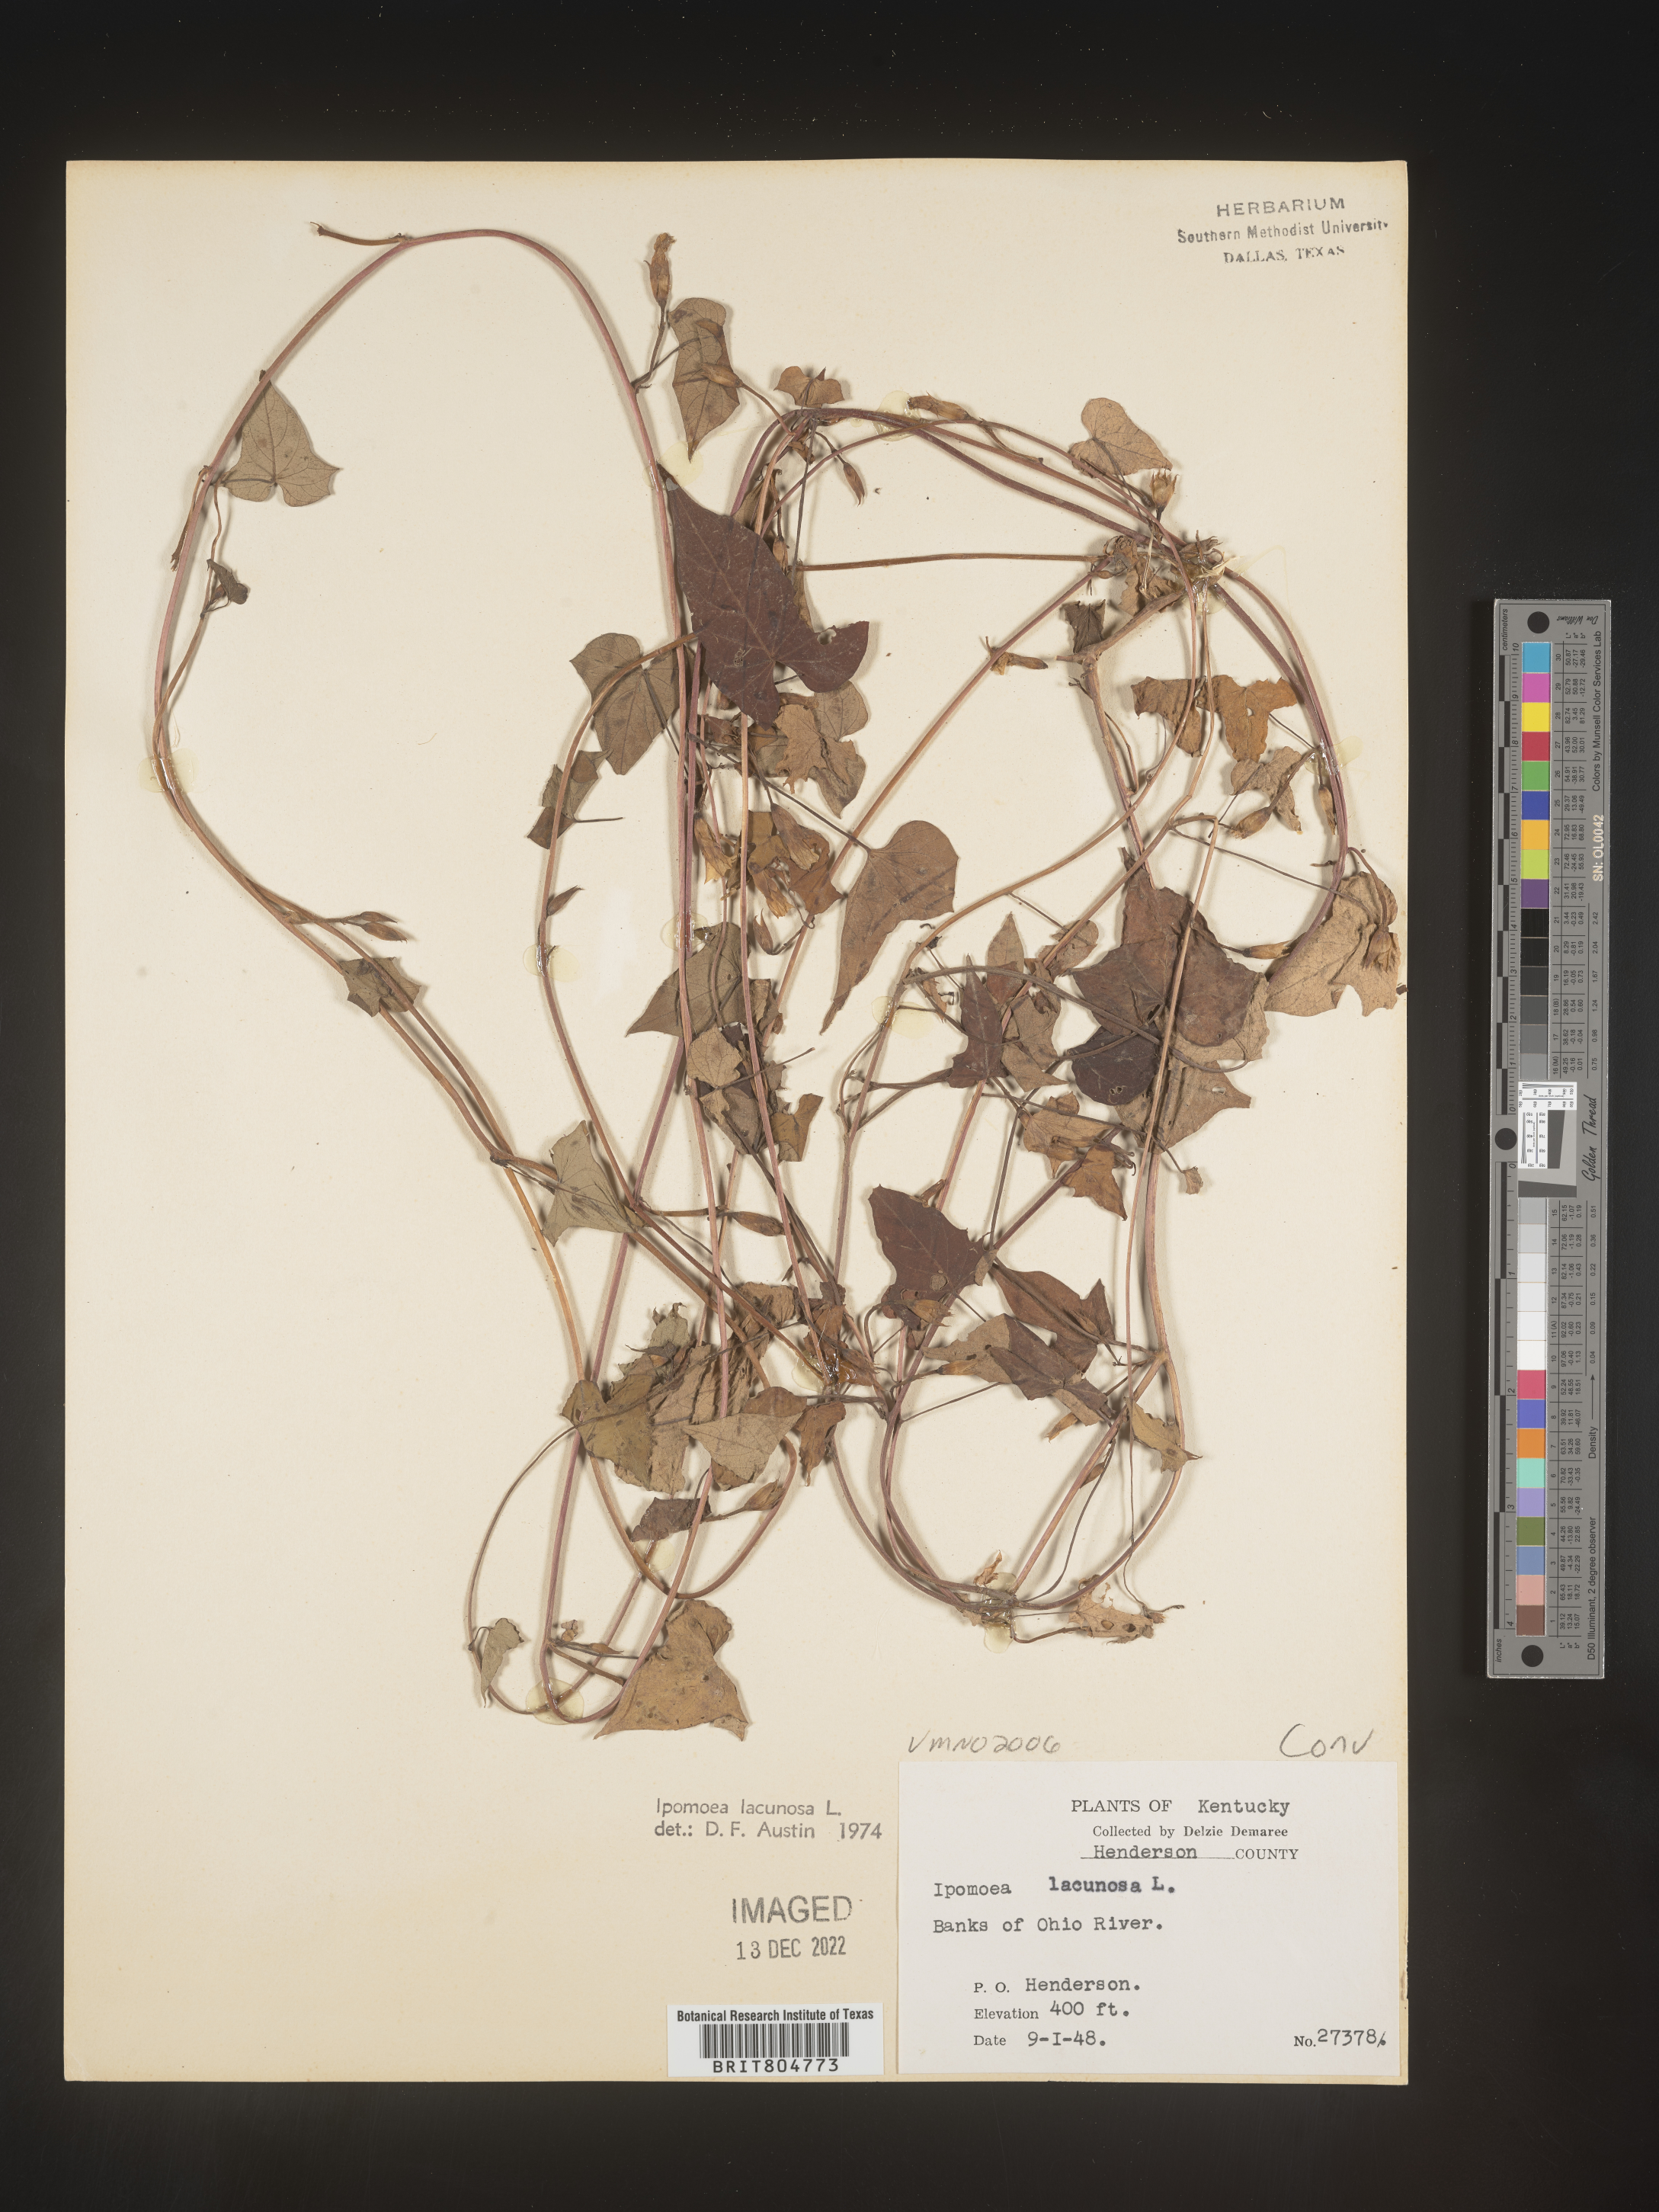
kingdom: Plantae
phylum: Tracheophyta
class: Magnoliopsida
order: Solanales
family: Convolvulaceae
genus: Ipomoea
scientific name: Ipomoea lacunosa
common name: White morning-glory
